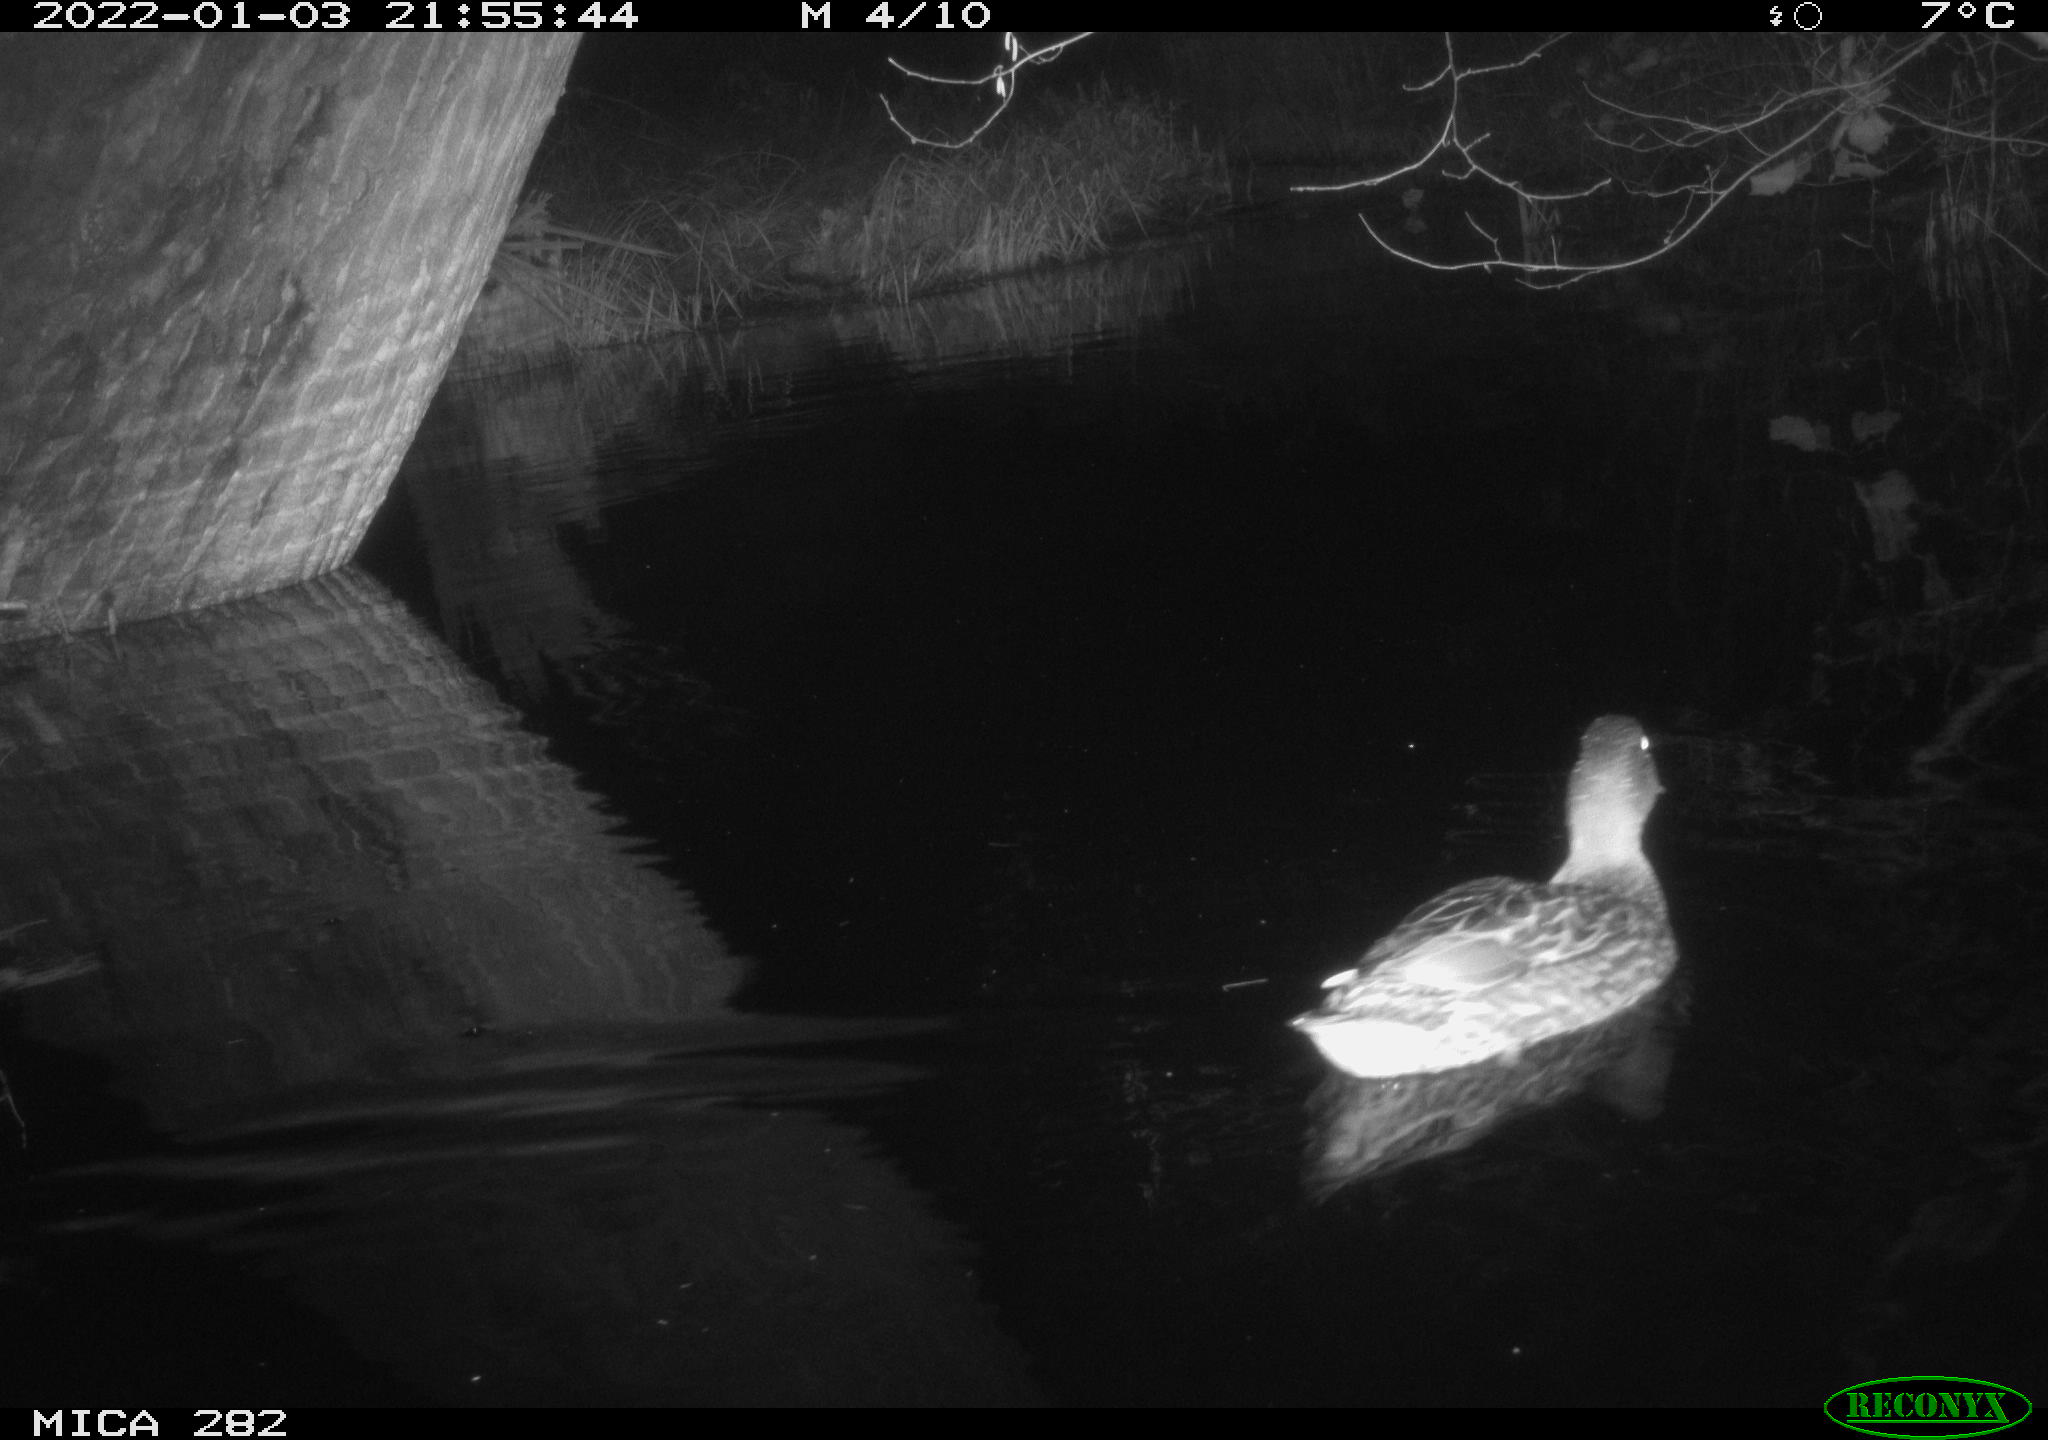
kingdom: Animalia
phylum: Chordata
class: Aves
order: Anseriformes
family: Anatidae
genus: Anas
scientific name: Anas platyrhynchos
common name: Mallard
